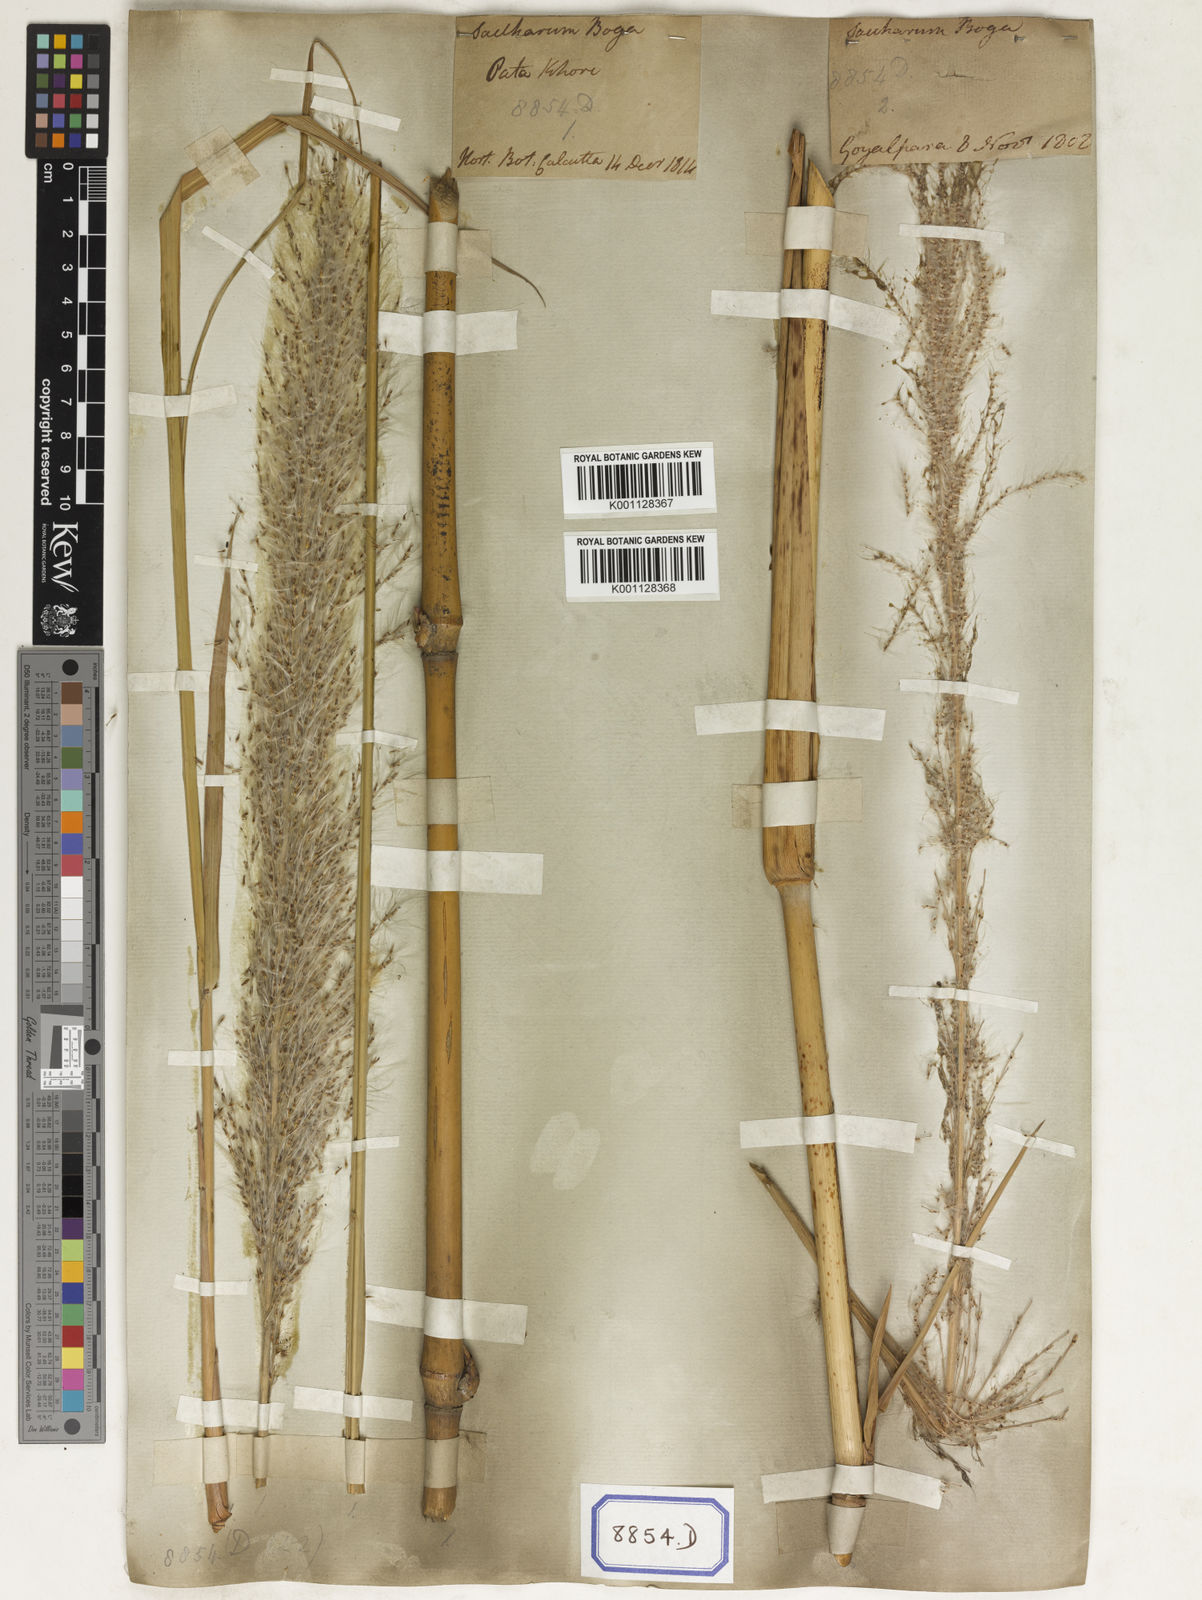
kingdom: Plantae
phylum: Tracheophyta
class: Liliopsida
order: Poales
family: Poaceae
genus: Saccharum
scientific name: Saccharum
